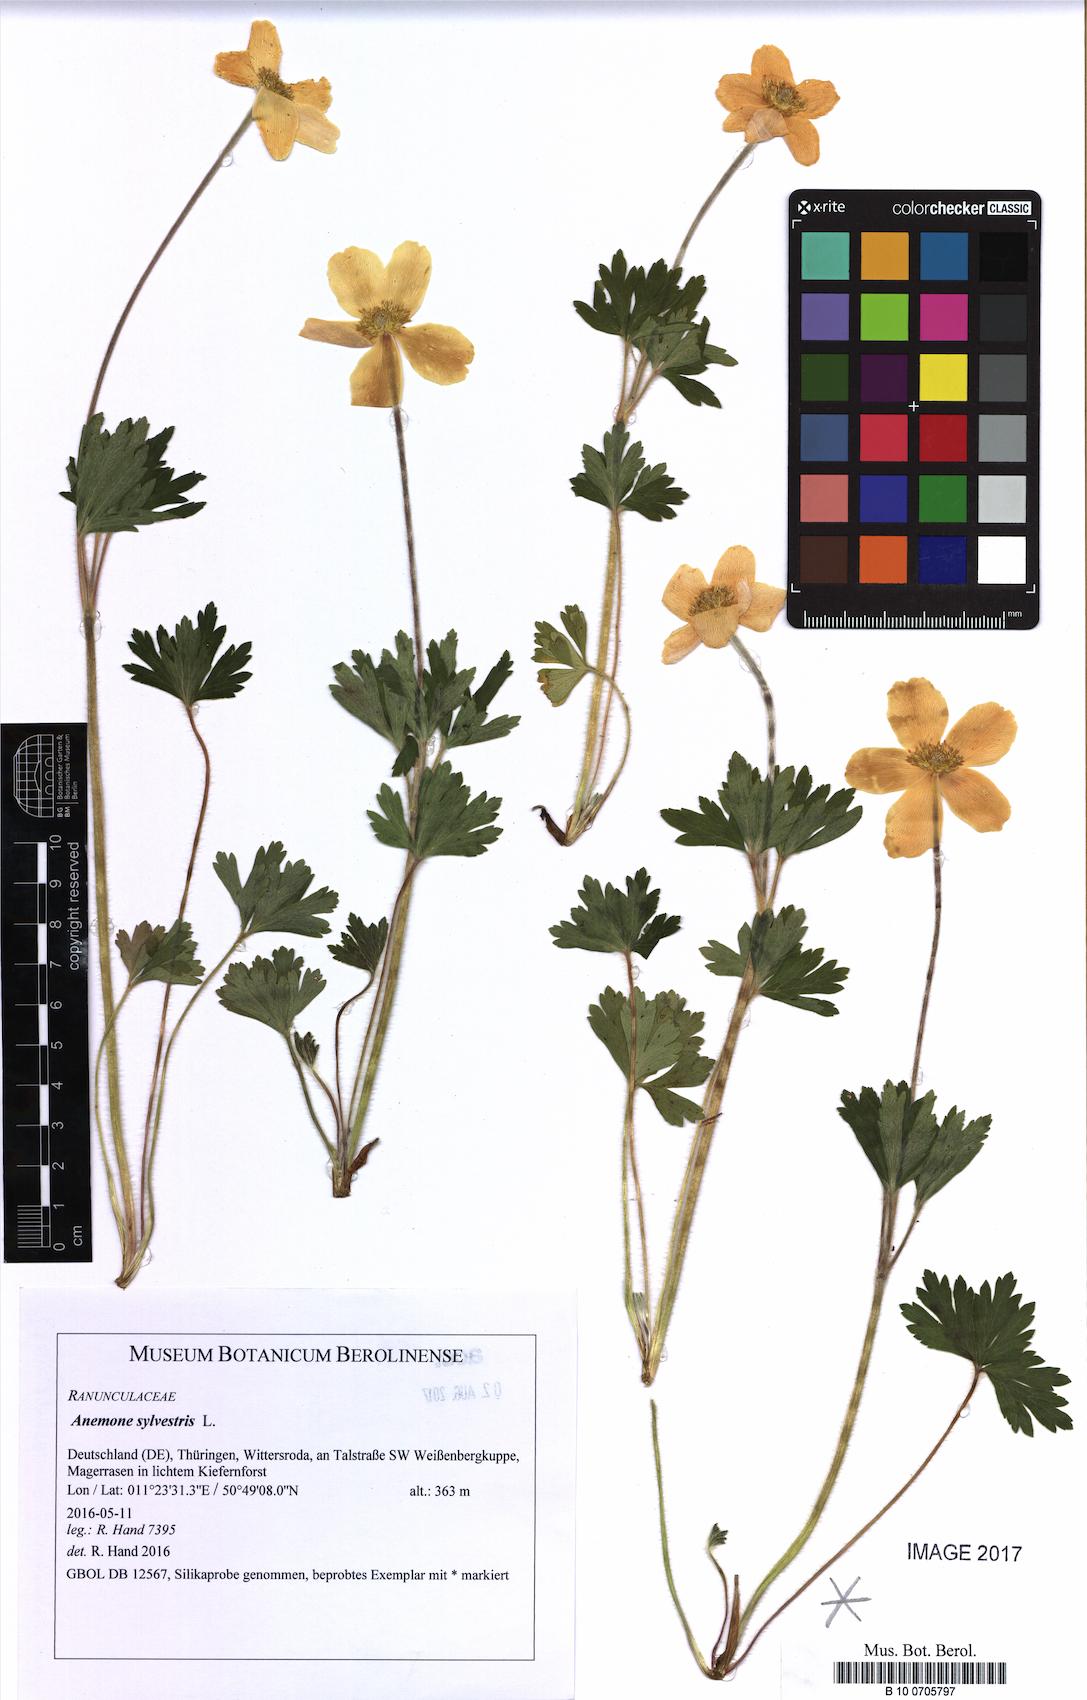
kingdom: Plantae
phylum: Tracheophyta
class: Magnoliopsida
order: Ranunculales
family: Ranunculaceae
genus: Anemone
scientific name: Anemone sylvestris
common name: Snowdrop anemone
